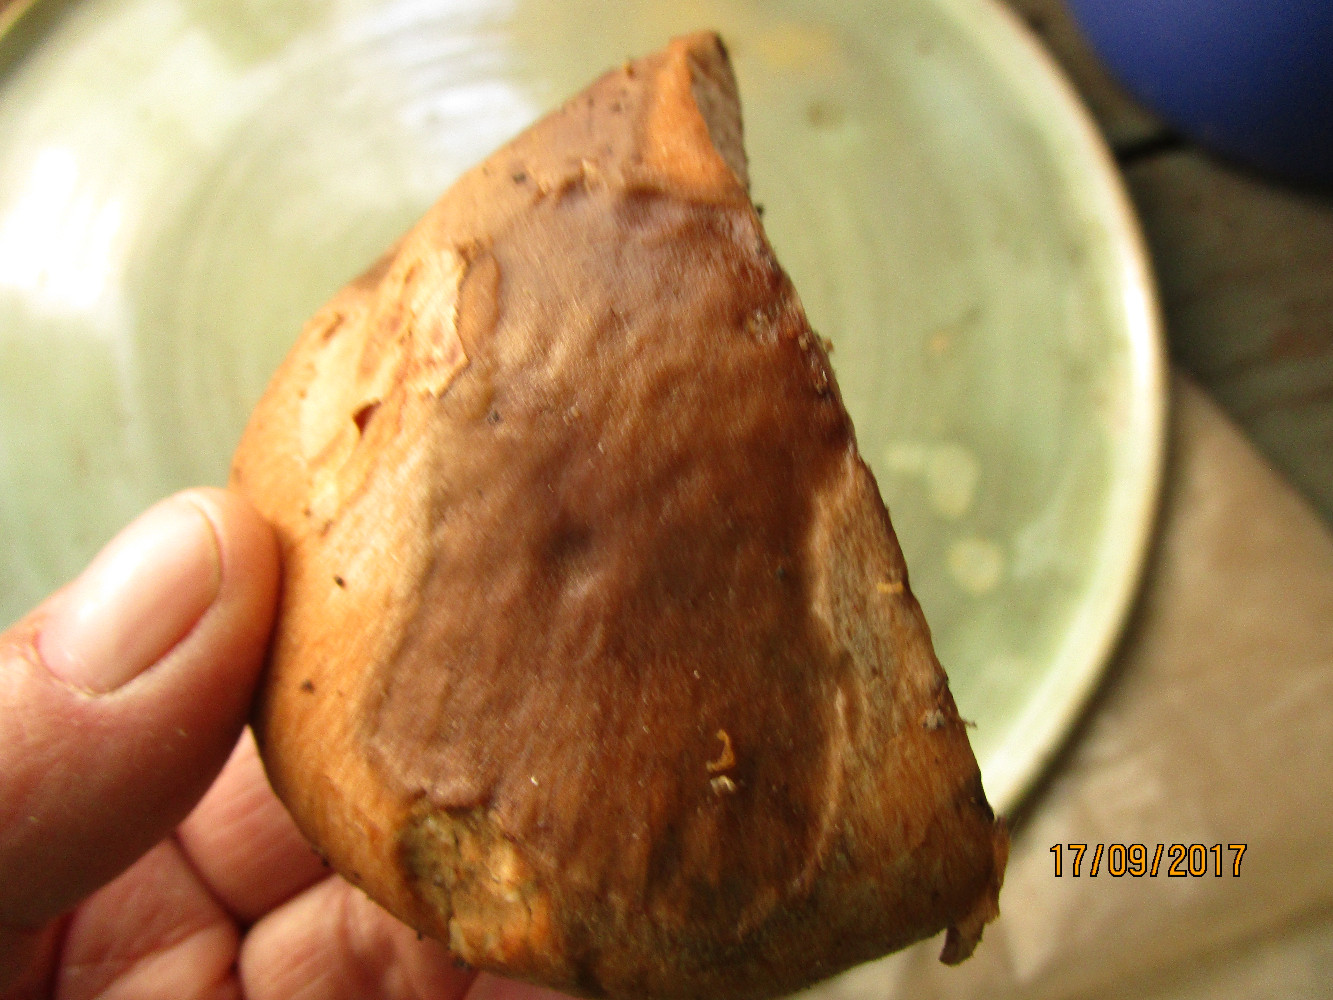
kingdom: Fungi
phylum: Basidiomycota
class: Agaricomycetes
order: Agaricales
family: Cortinariaceae
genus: Cortinarius
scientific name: Cortinarius
